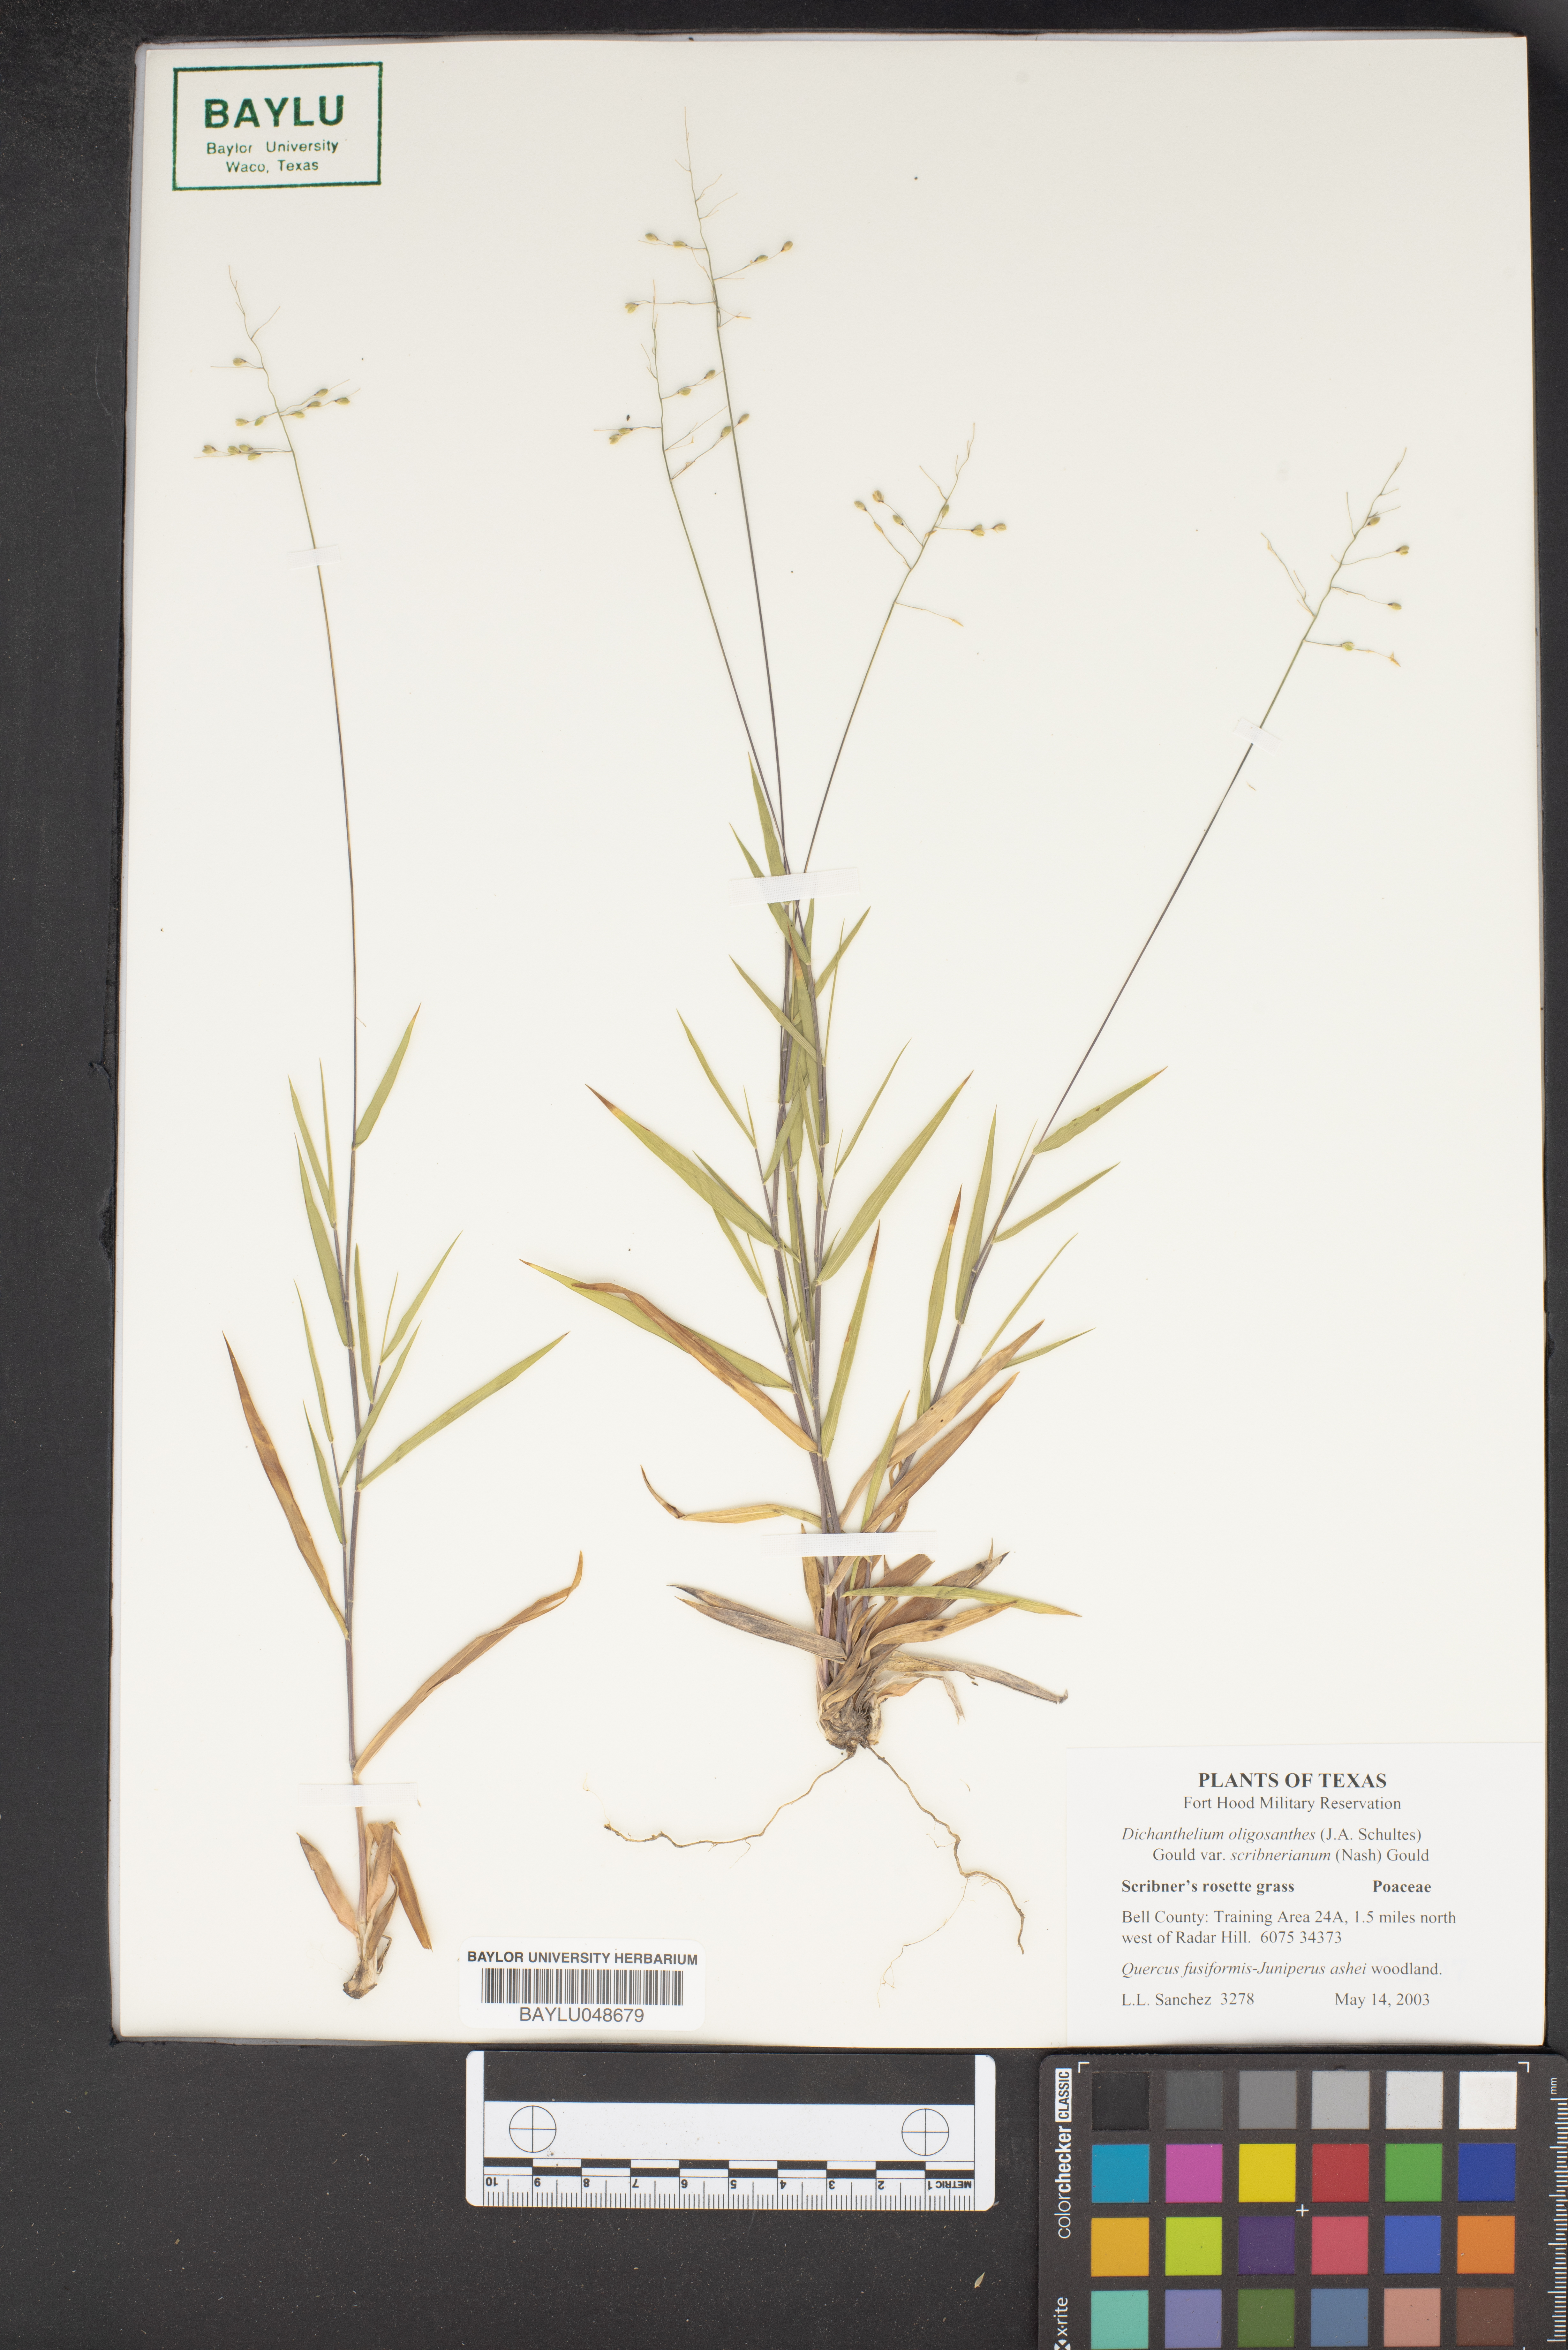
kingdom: Plantae
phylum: Tracheophyta
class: Liliopsida
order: Poales
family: Poaceae
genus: Dichanthelium
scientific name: Dichanthelium oligosanthes
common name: Few-anther obscuregrass
